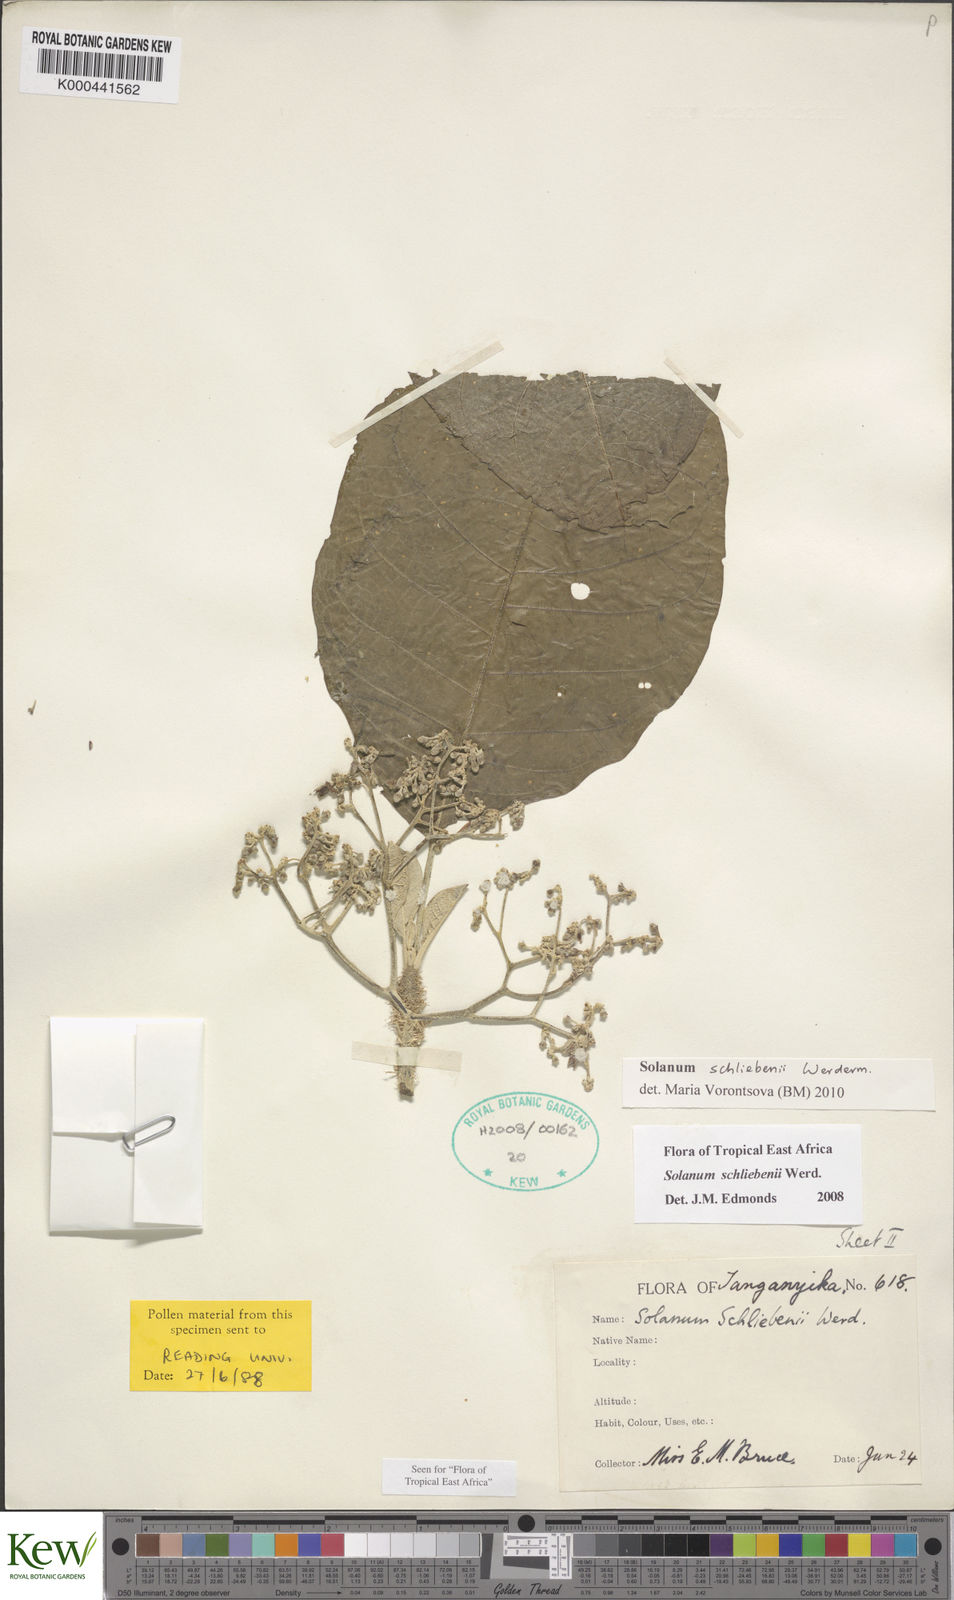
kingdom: Plantae
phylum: Tracheophyta
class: Magnoliopsida
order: Solanales
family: Solanaceae
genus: Solanum
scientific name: Solanum schliebenii
